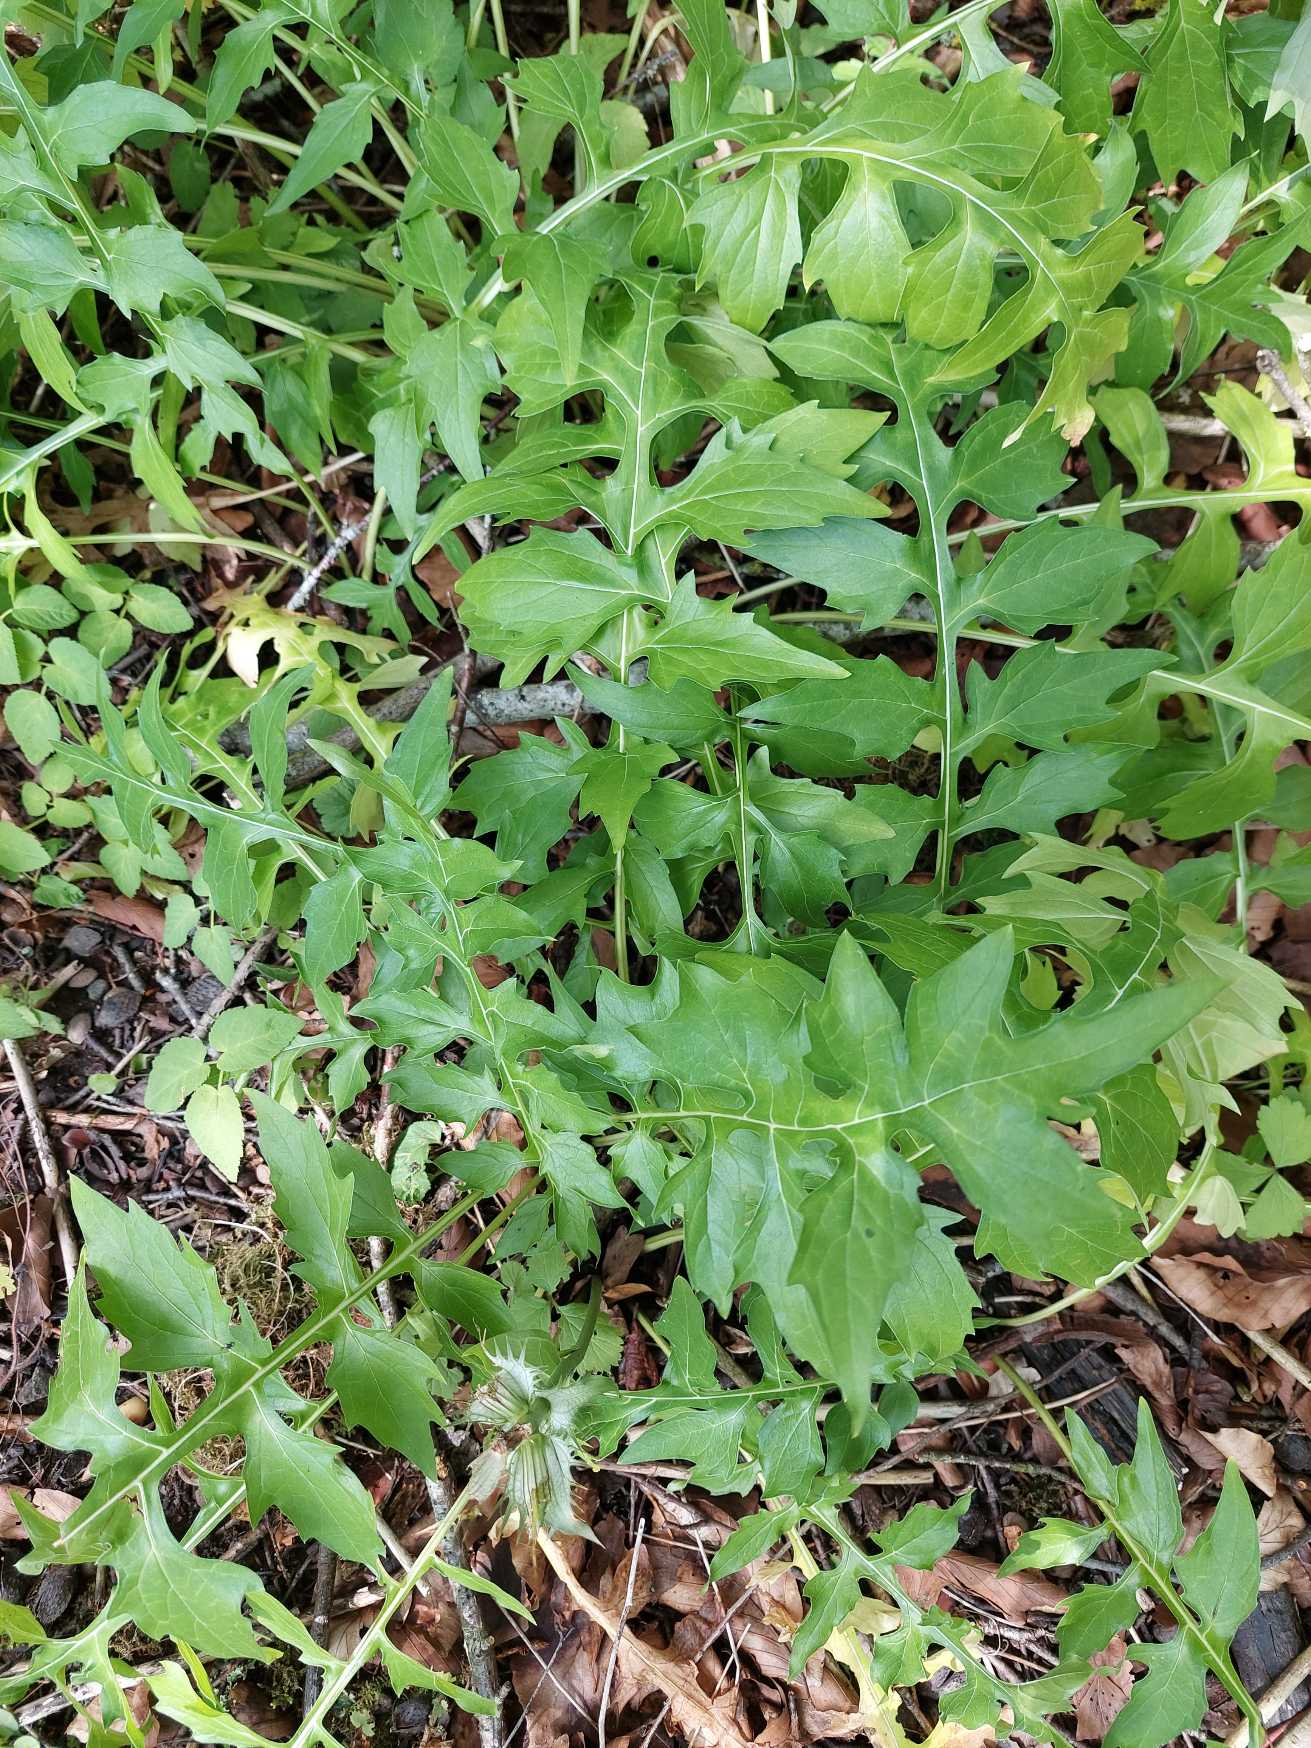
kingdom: Plantae
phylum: Tracheophyta
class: Magnoliopsida
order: Lamiales
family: Acanthaceae
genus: Acanthus
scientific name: Acanthus hungaricus
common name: Balkantidsel
